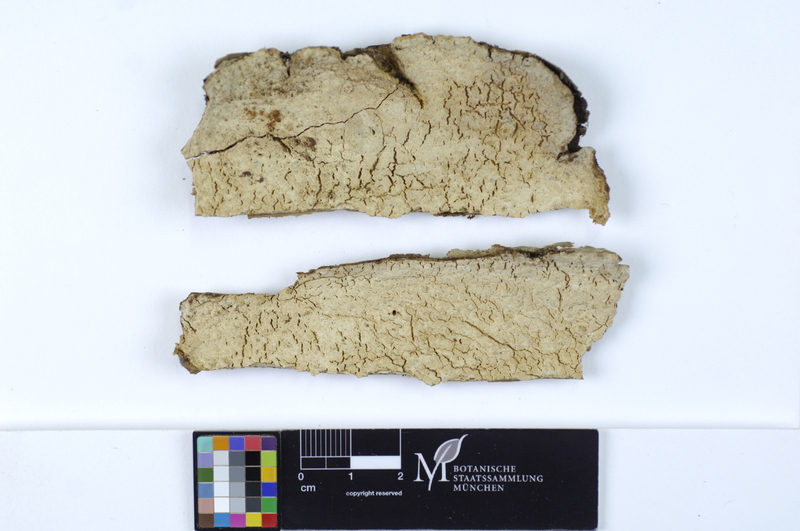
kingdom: Plantae
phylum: Tracheophyta
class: Pinopsida
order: Pinales
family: Pinaceae
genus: Abies
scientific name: Abies
